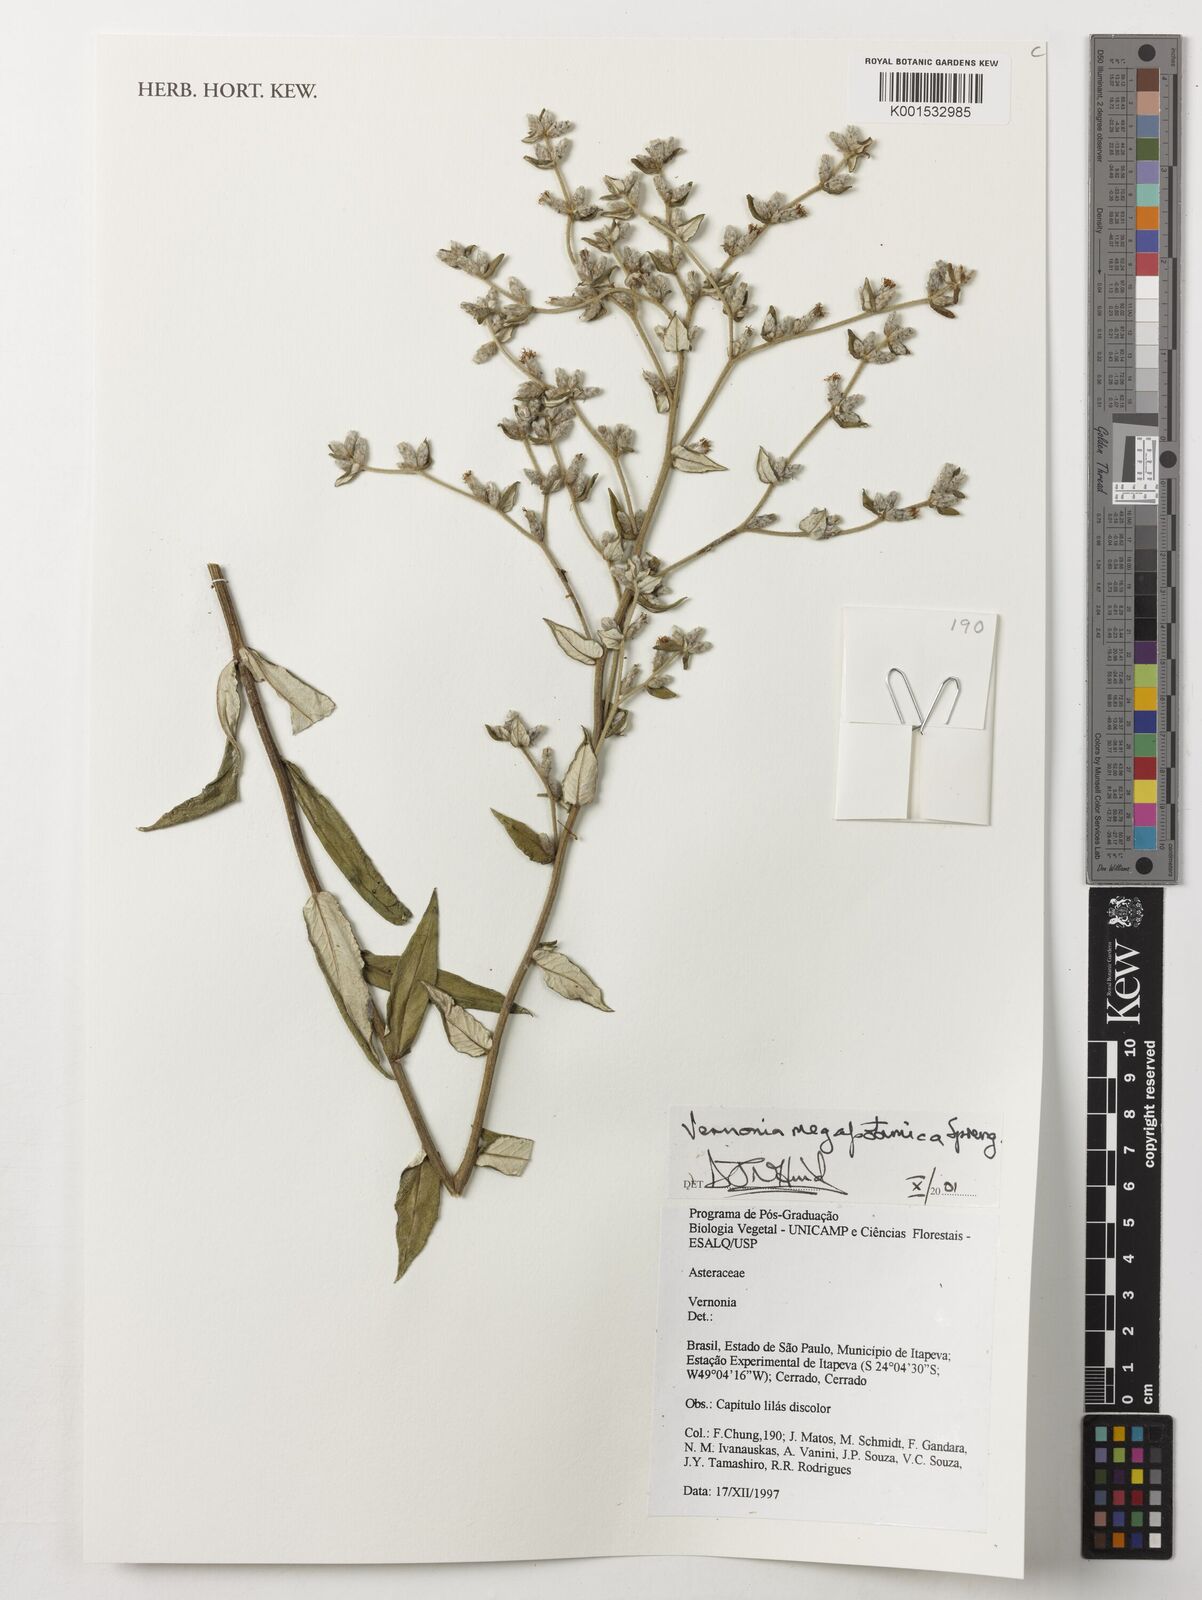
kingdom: Plantae
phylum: Tracheophyta
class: Magnoliopsida
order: Asterales
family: Asteraceae
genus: Stenocephalum
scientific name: Stenocephalum megapotamicum
